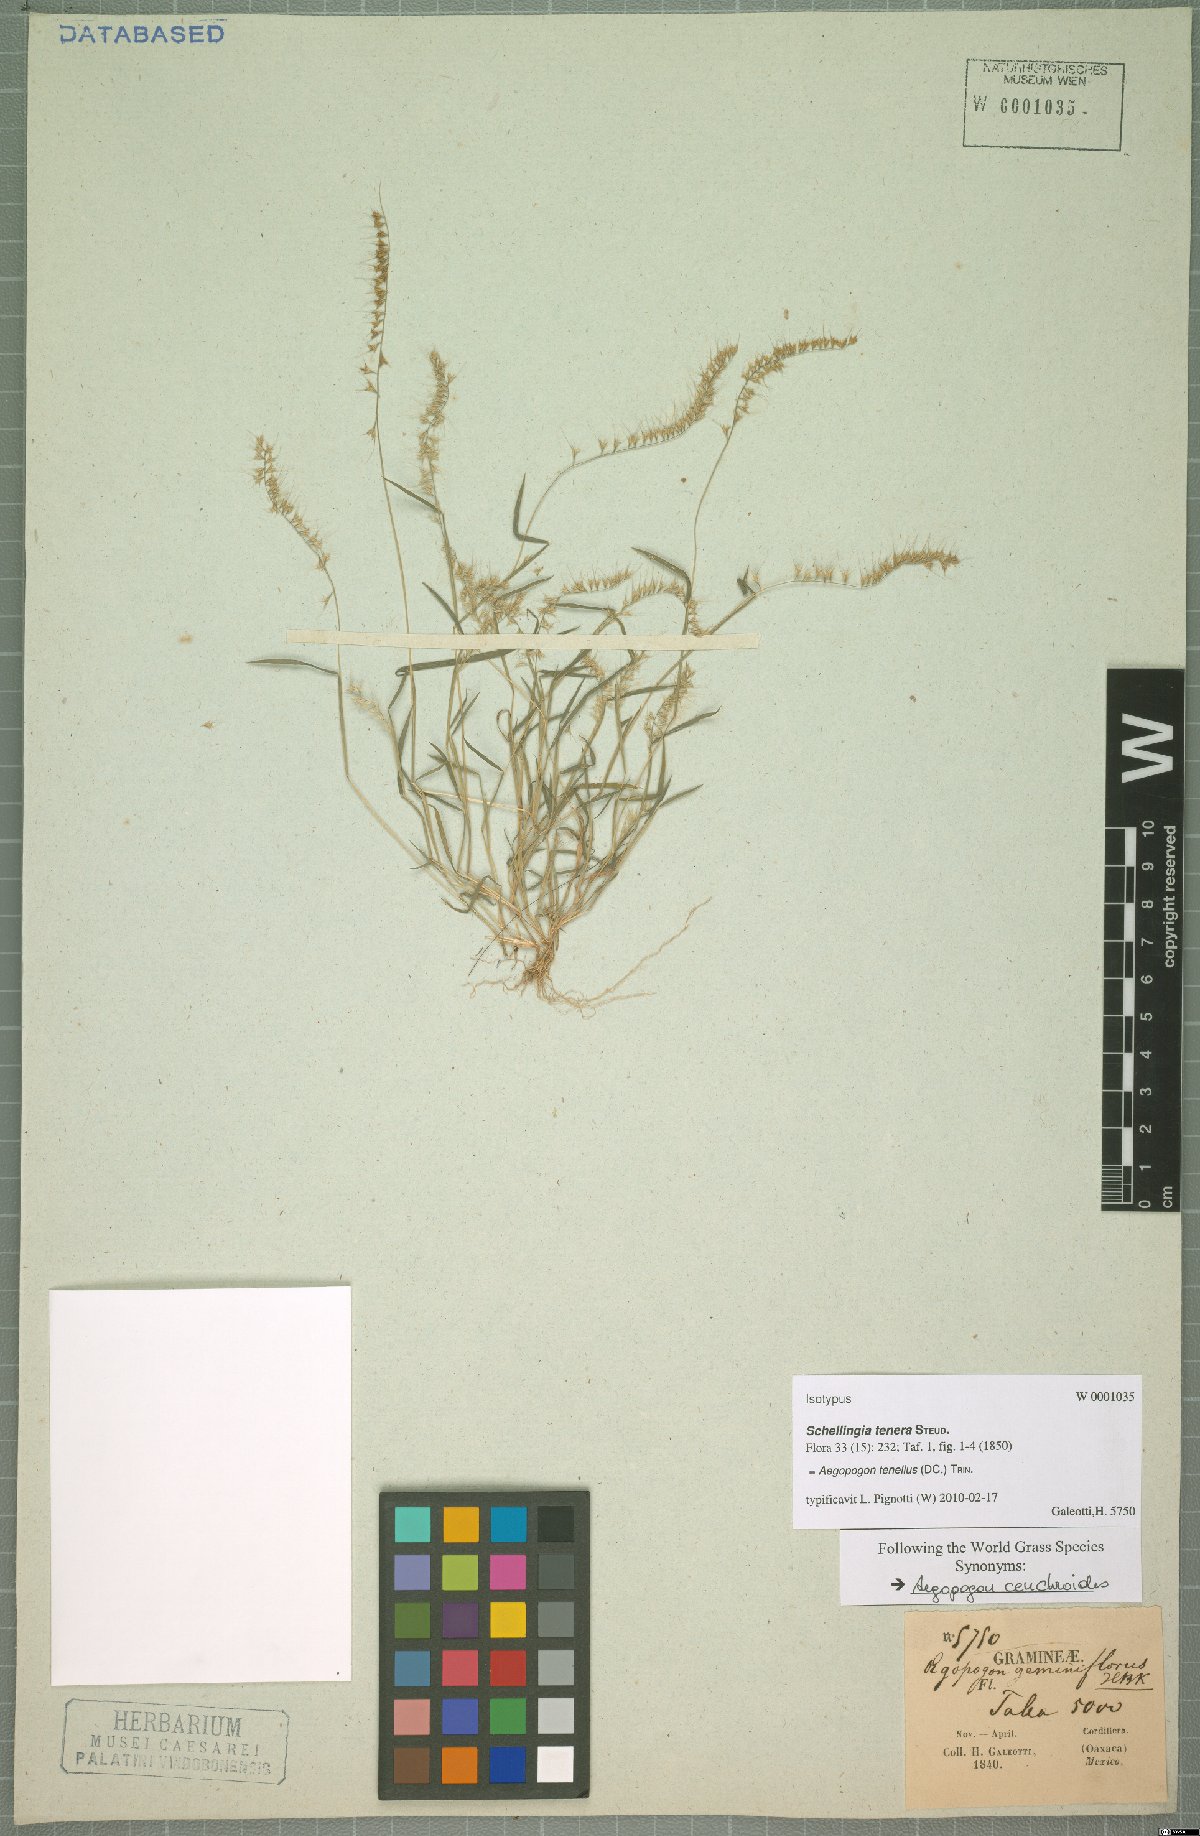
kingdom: Plantae
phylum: Tracheophyta
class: Liliopsida
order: Poales
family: Poaceae
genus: Muhlenbergia
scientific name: Muhlenbergia uniseta
